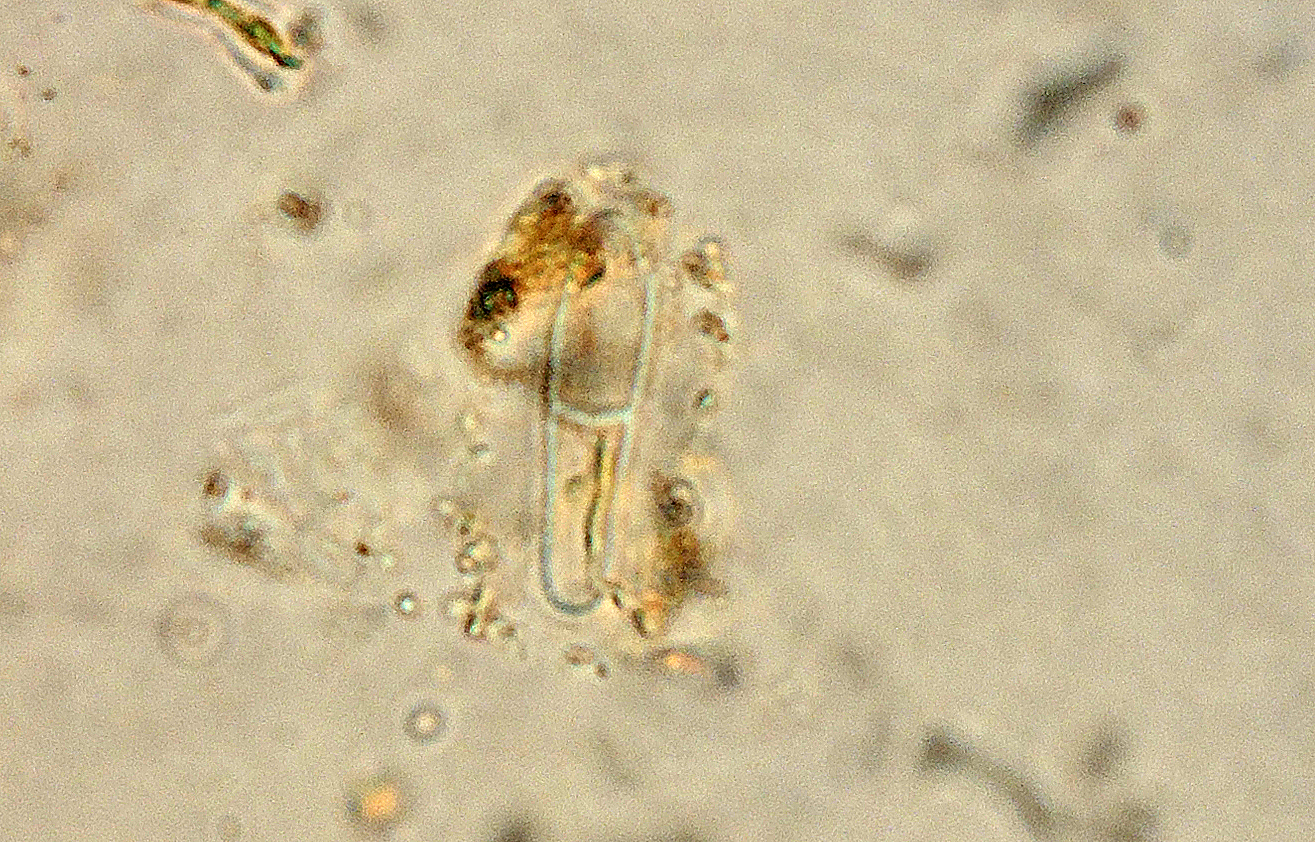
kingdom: Fungi
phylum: Ascomycota
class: Dothideomycetes
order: Pleosporales
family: Naetrocymbaceae
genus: Naetrocymbe
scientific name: Naetrocymbe punctiformis
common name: punkt-arthopyrenia
